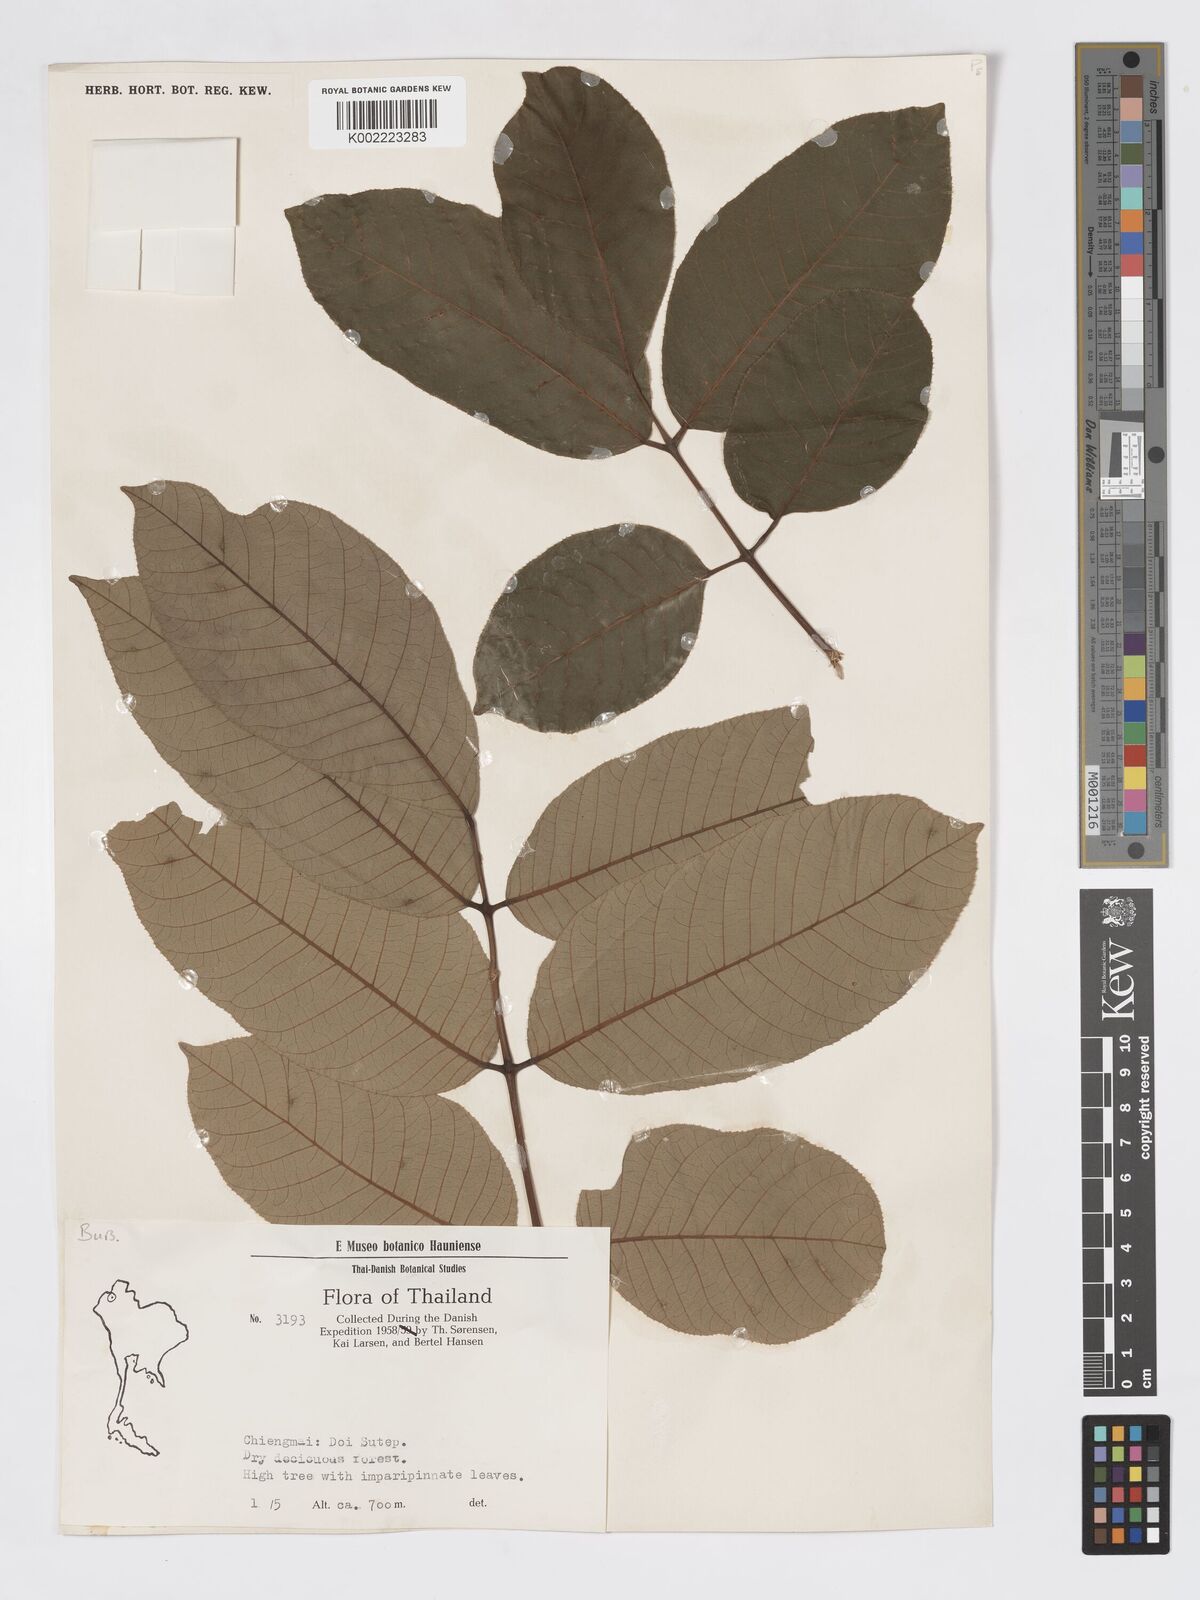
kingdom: Plantae
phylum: Tracheophyta
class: Magnoliopsida
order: Sapindales
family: Burseraceae
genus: Canarium
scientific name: Canarium subulatum
